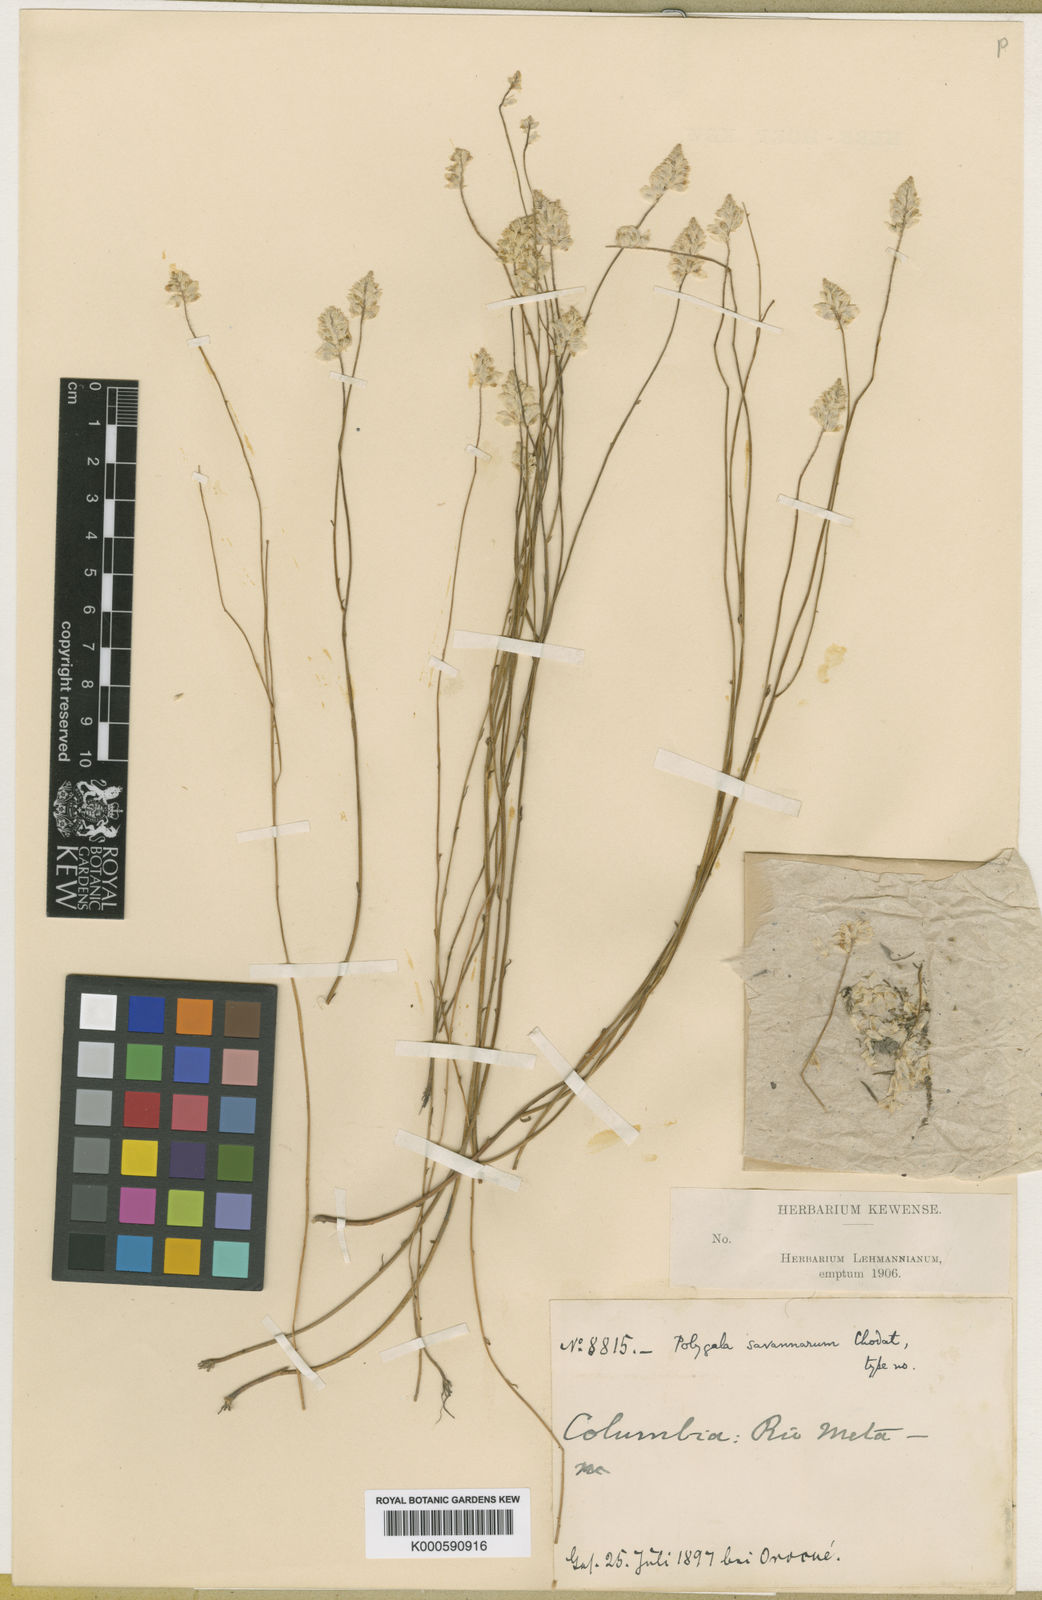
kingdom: Plantae
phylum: Tracheophyta
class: Magnoliopsida
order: Fabales
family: Polygalaceae
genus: Polygala
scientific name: Polygala savannarum
